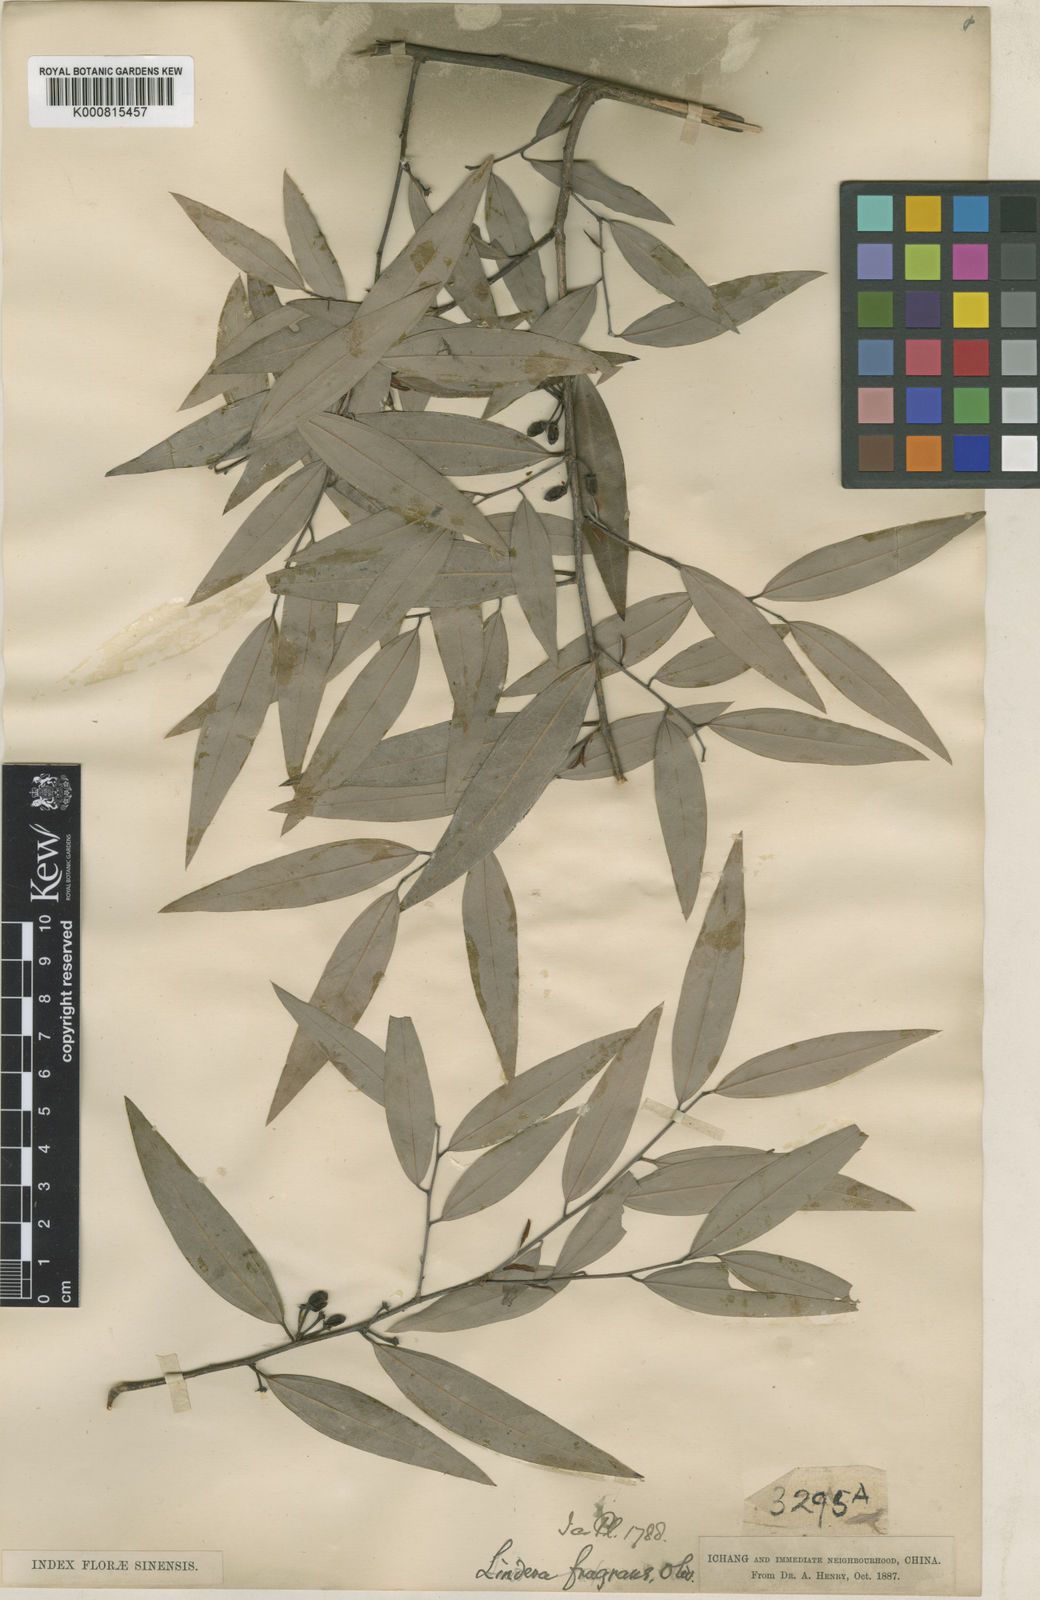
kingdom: Plantae
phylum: Tracheophyta
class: Magnoliopsida
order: Laurales
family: Lauraceae
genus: Lindera
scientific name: Lindera fragrans
